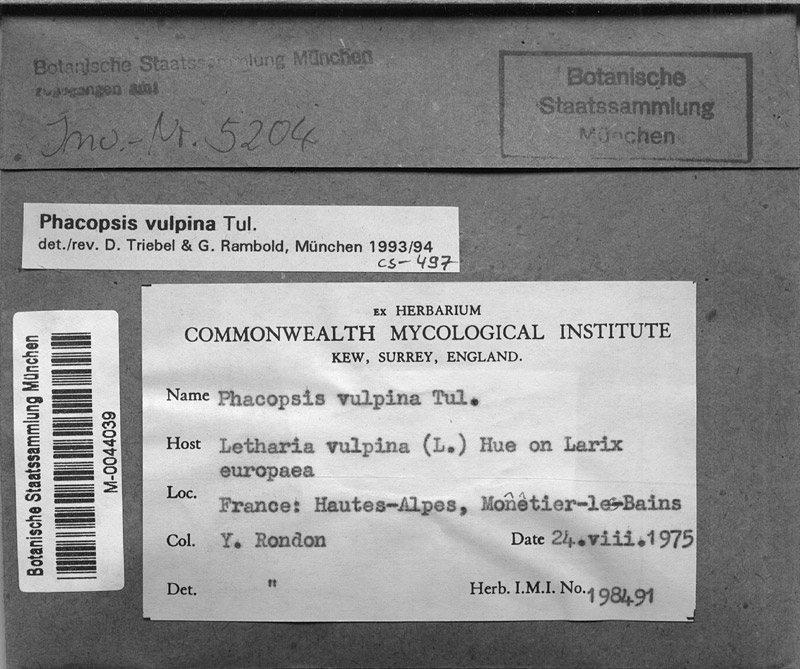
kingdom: Fungi
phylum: Ascomycota
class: Lecanoromycetes
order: Lecanorales
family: Parmeliaceae
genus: Letharia
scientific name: Letharia vulpina
